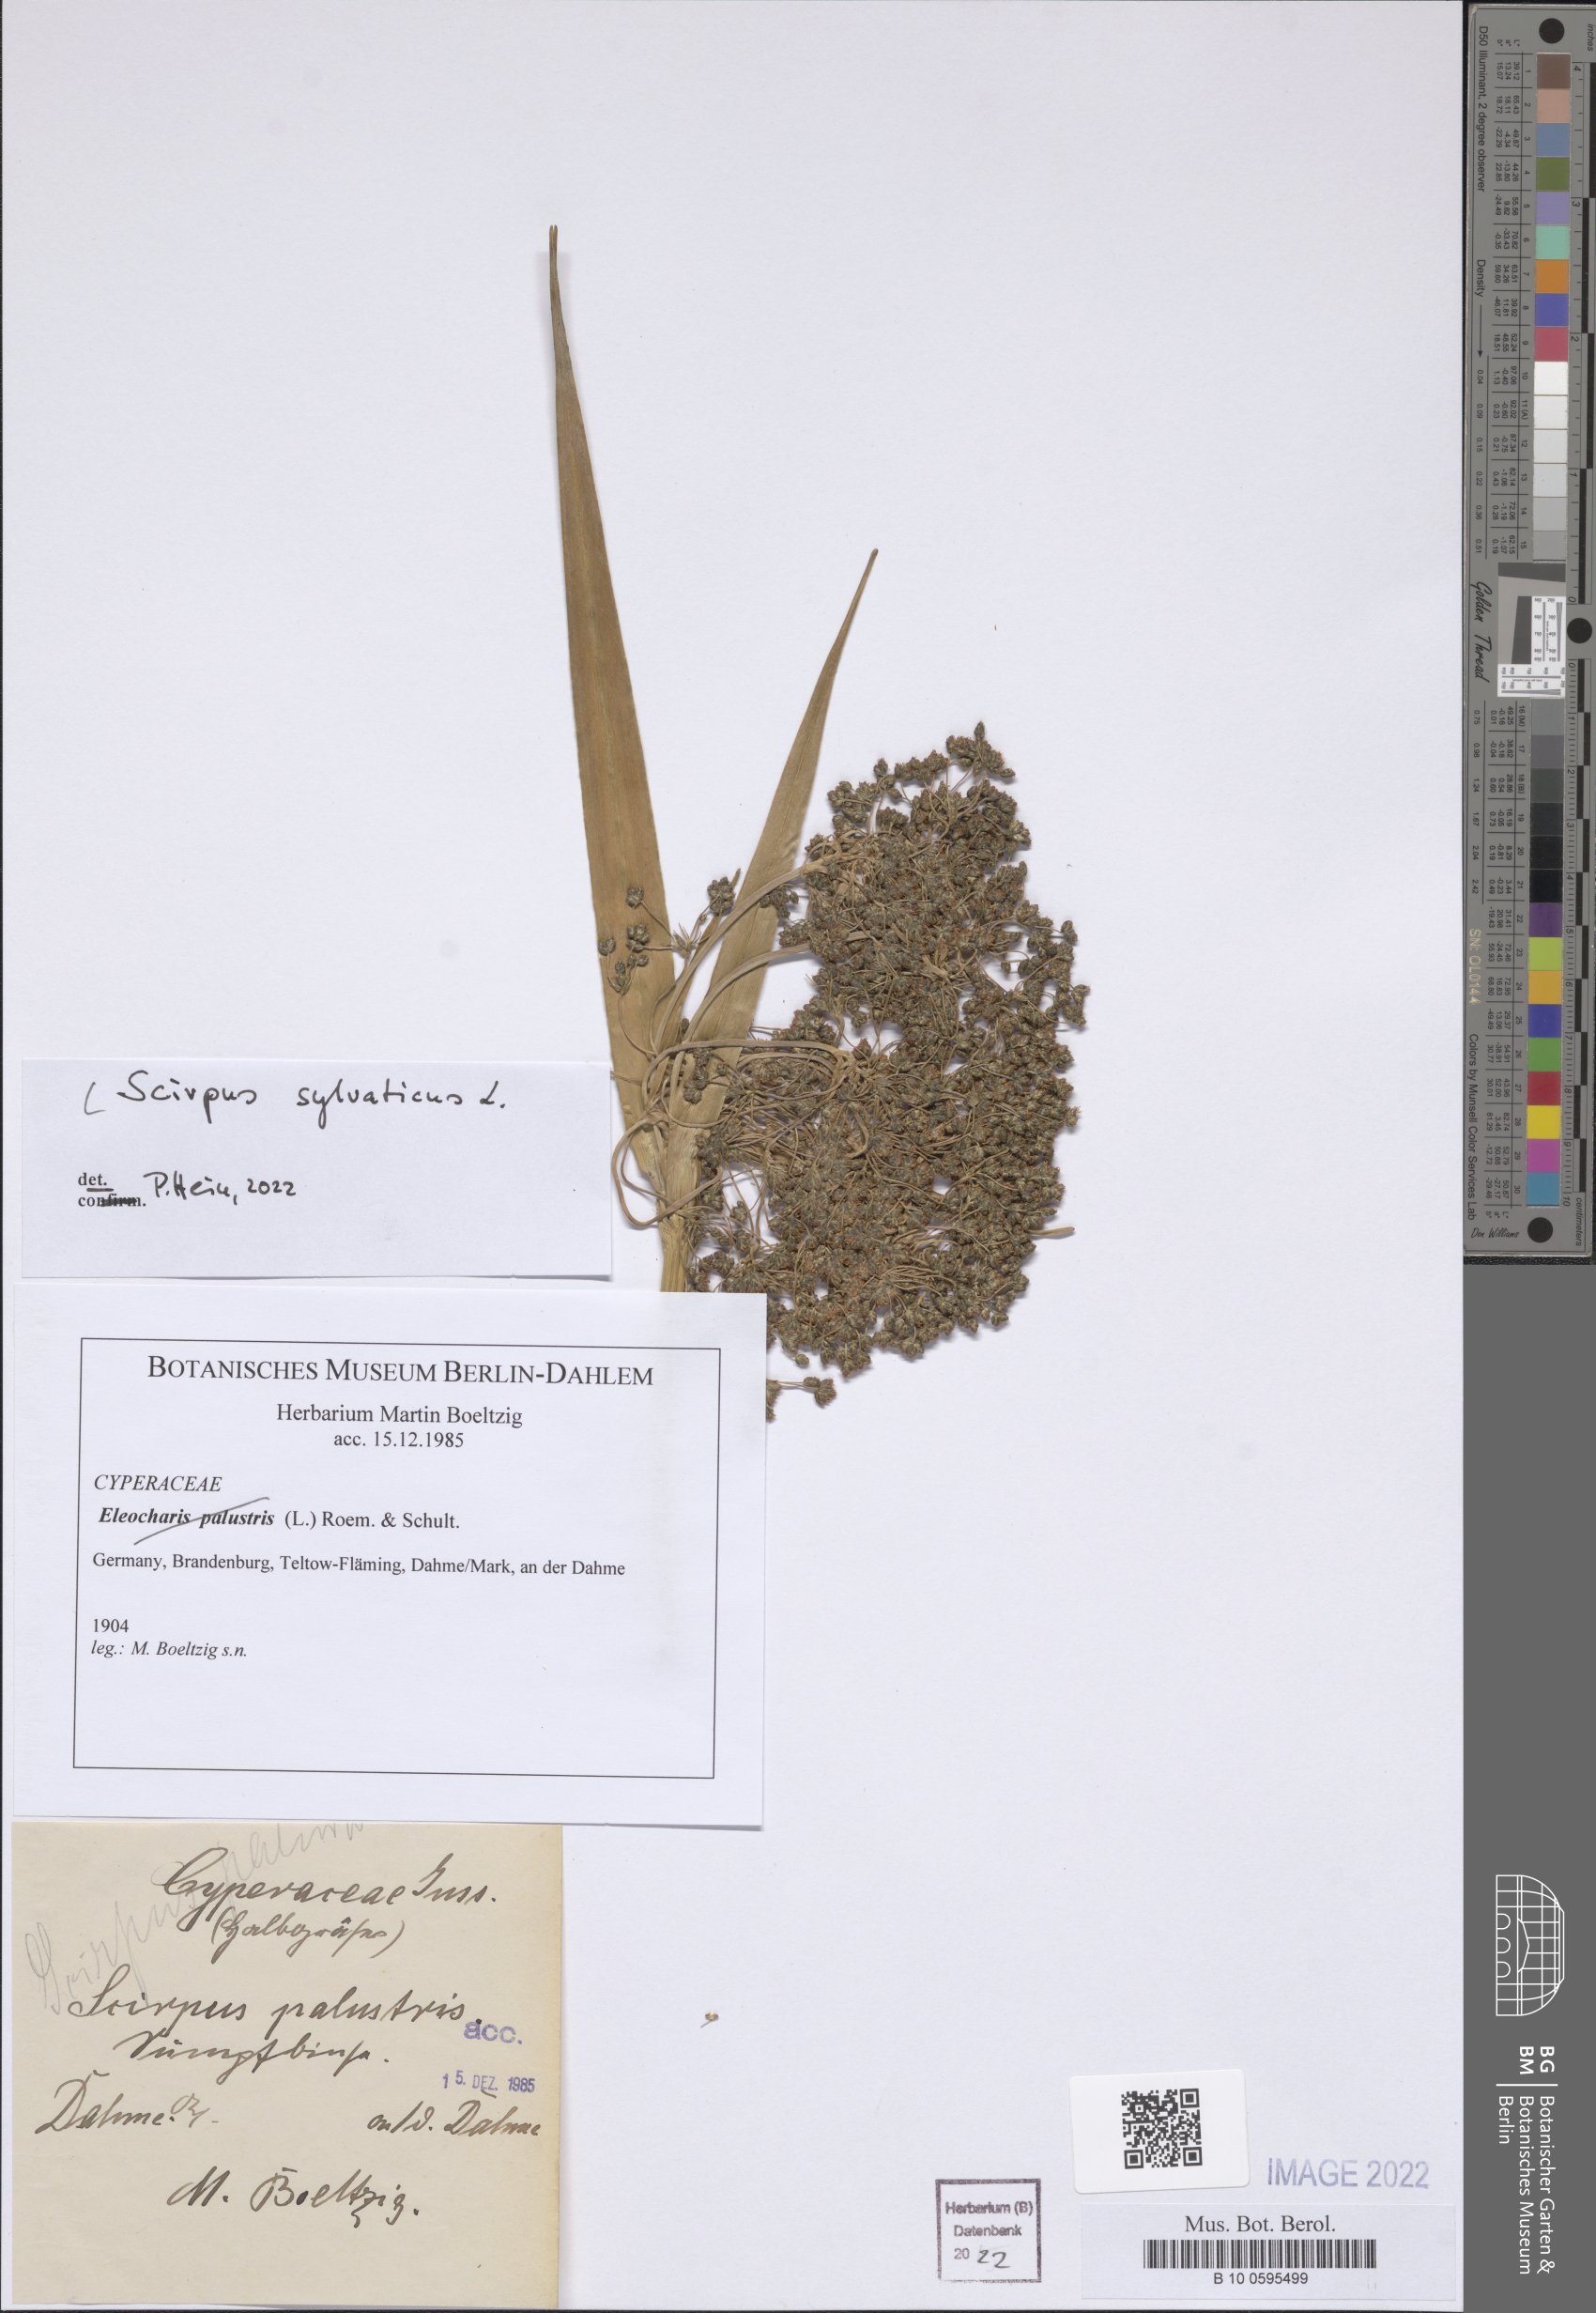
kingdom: Plantae
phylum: Tracheophyta
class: Liliopsida
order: Poales
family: Cyperaceae
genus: Scirpus
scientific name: Scirpus sylvaticus
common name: Wood club-rush
